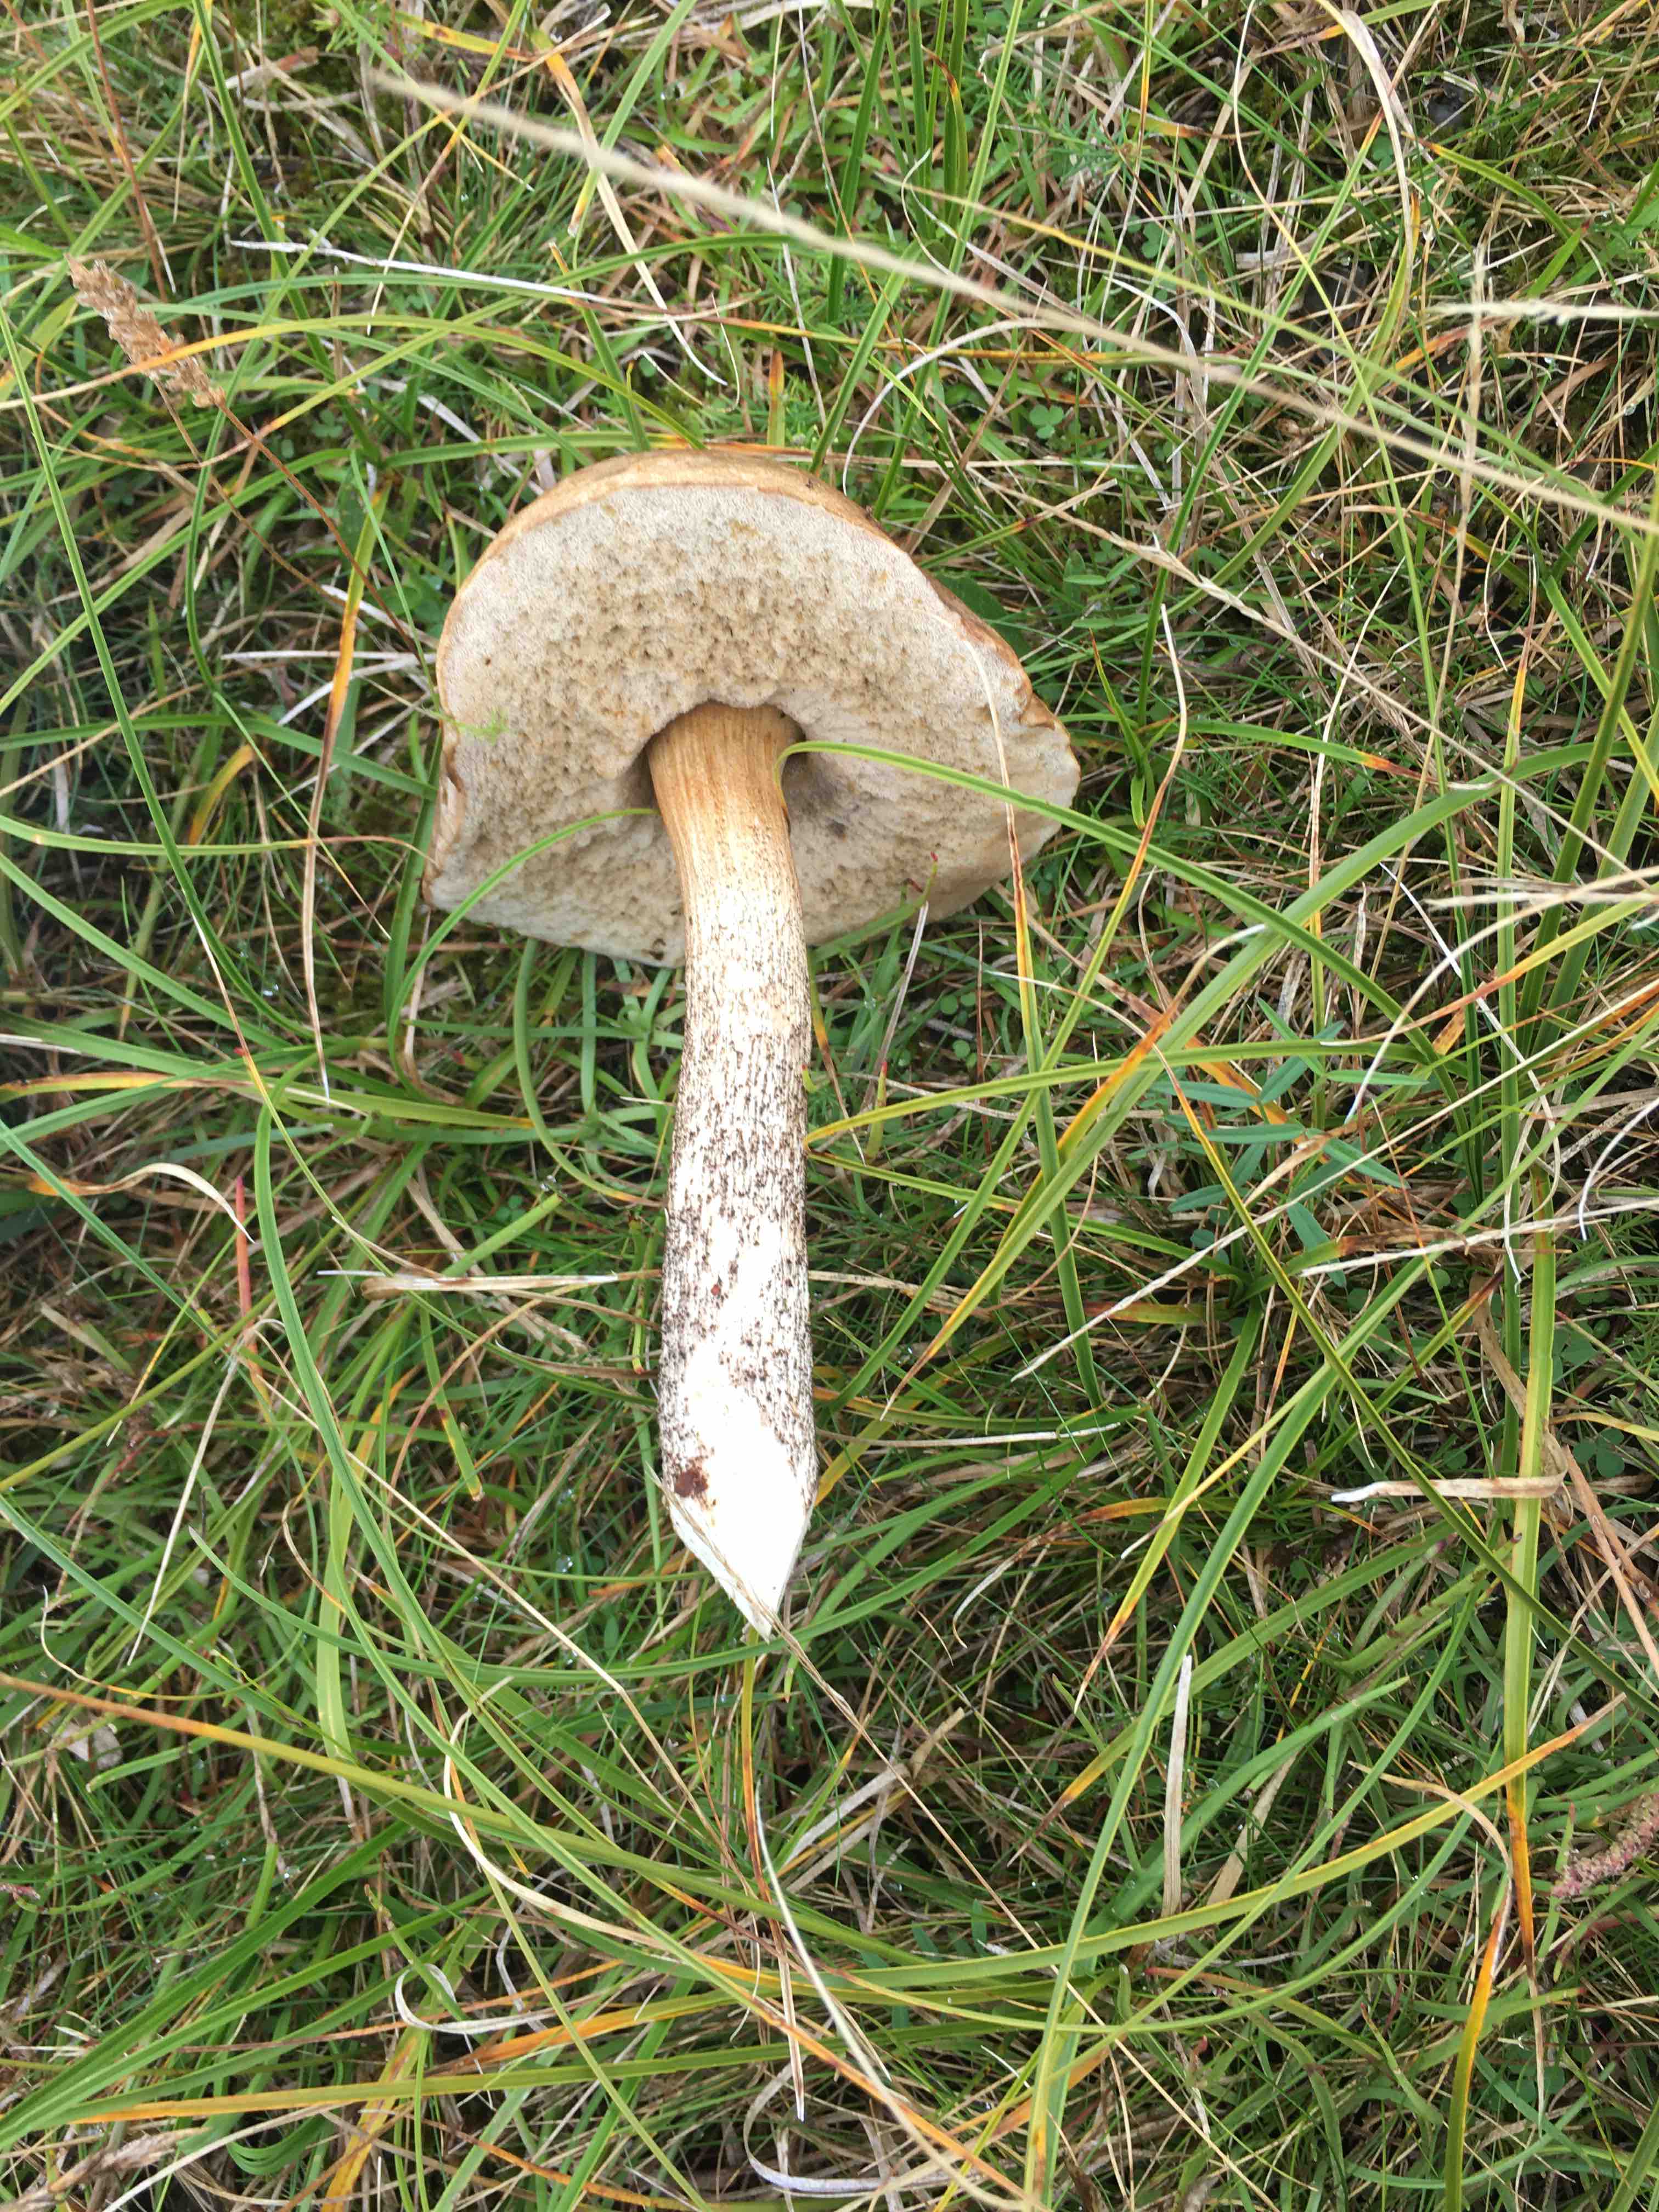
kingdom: Fungi
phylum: Basidiomycota
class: Agaricomycetes
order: Boletales
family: Boletaceae
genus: Leccinum
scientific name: Leccinum scabrum
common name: brun skælrørhat
